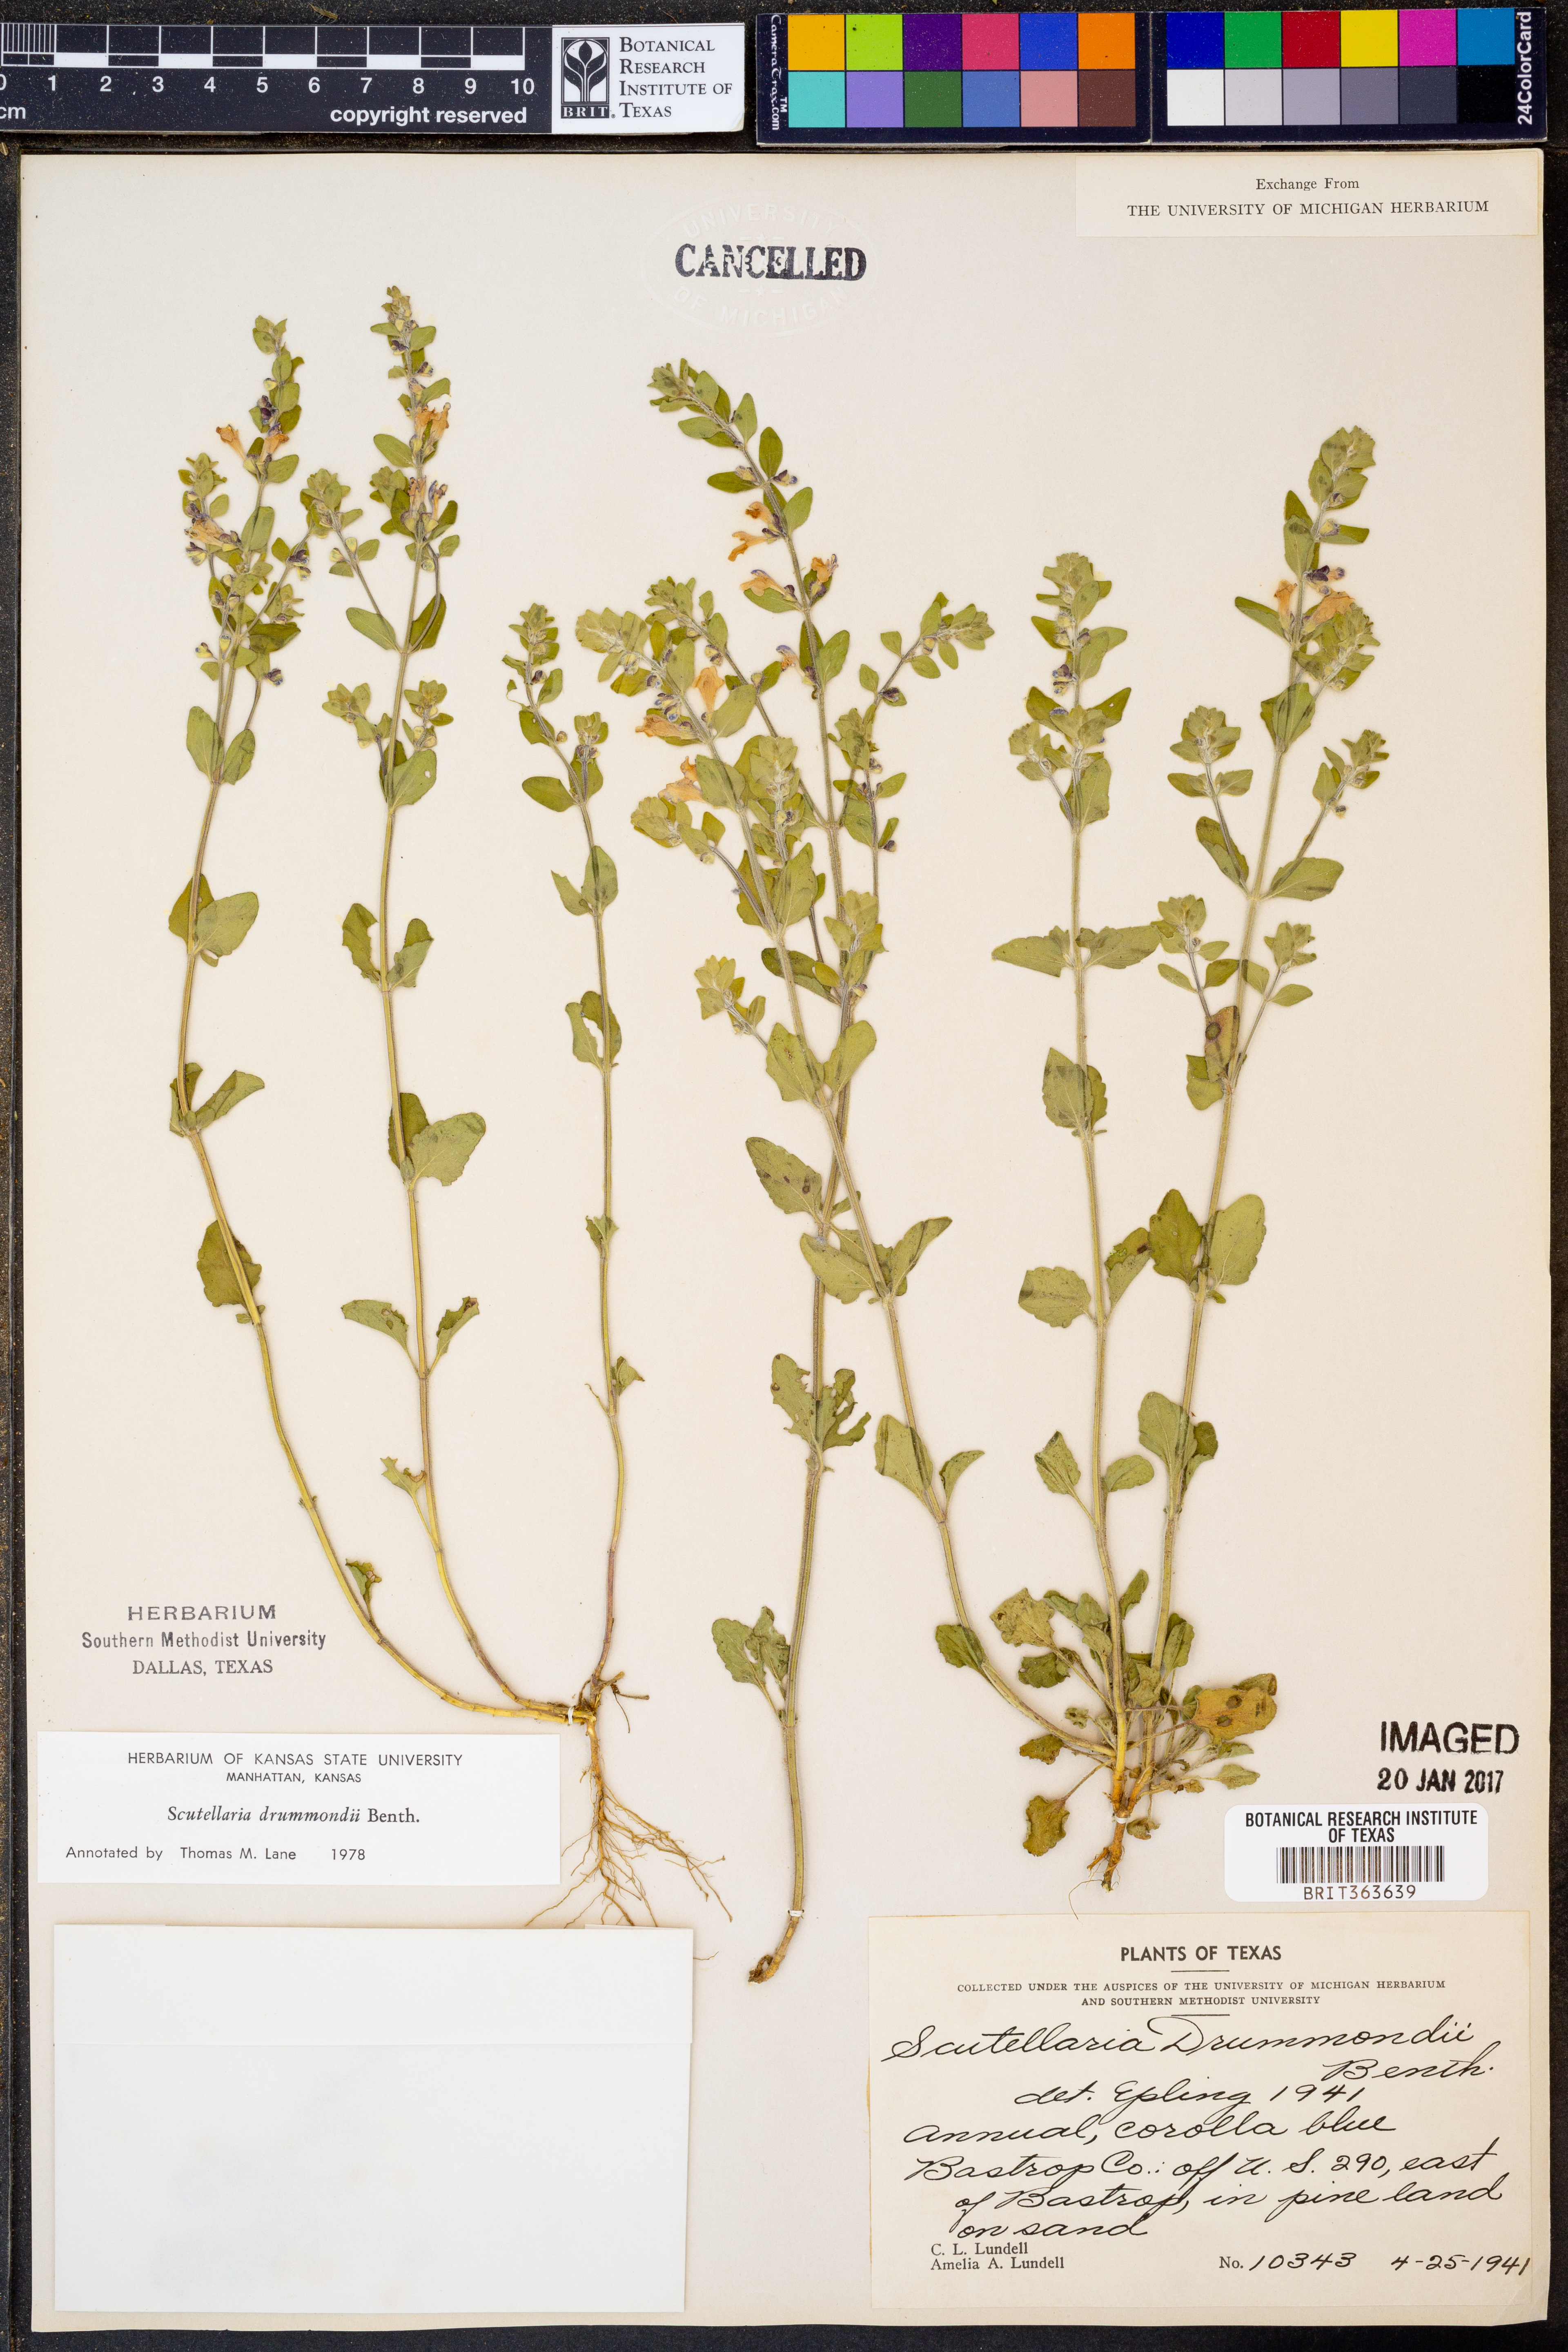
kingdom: Plantae
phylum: Tracheophyta
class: Magnoliopsida
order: Lamiales
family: Lamiaceae
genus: Scutellaria
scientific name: Scutellaria drummondii
